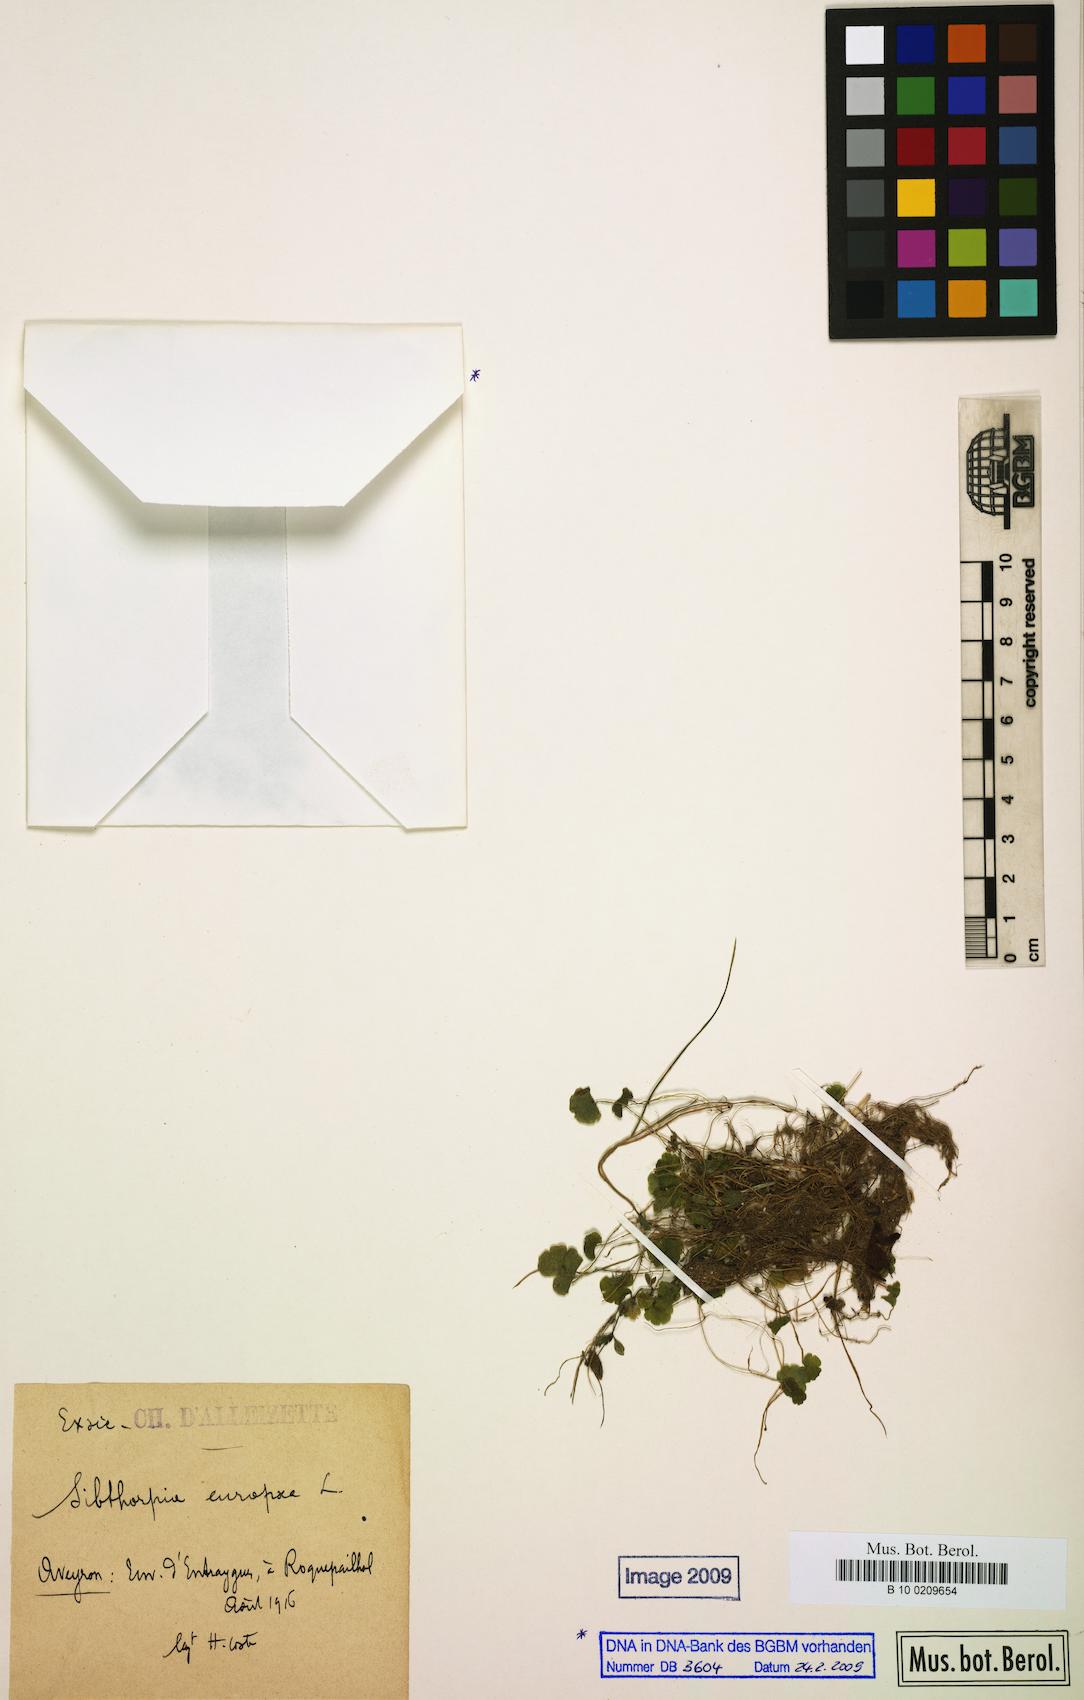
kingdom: Plantae
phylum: Tracheophyta
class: Magnoliopsida
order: Lamiales
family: Plantaginaceae
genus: Sibthorpia
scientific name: Sibthorpia europaea
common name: Cornish moneywort
